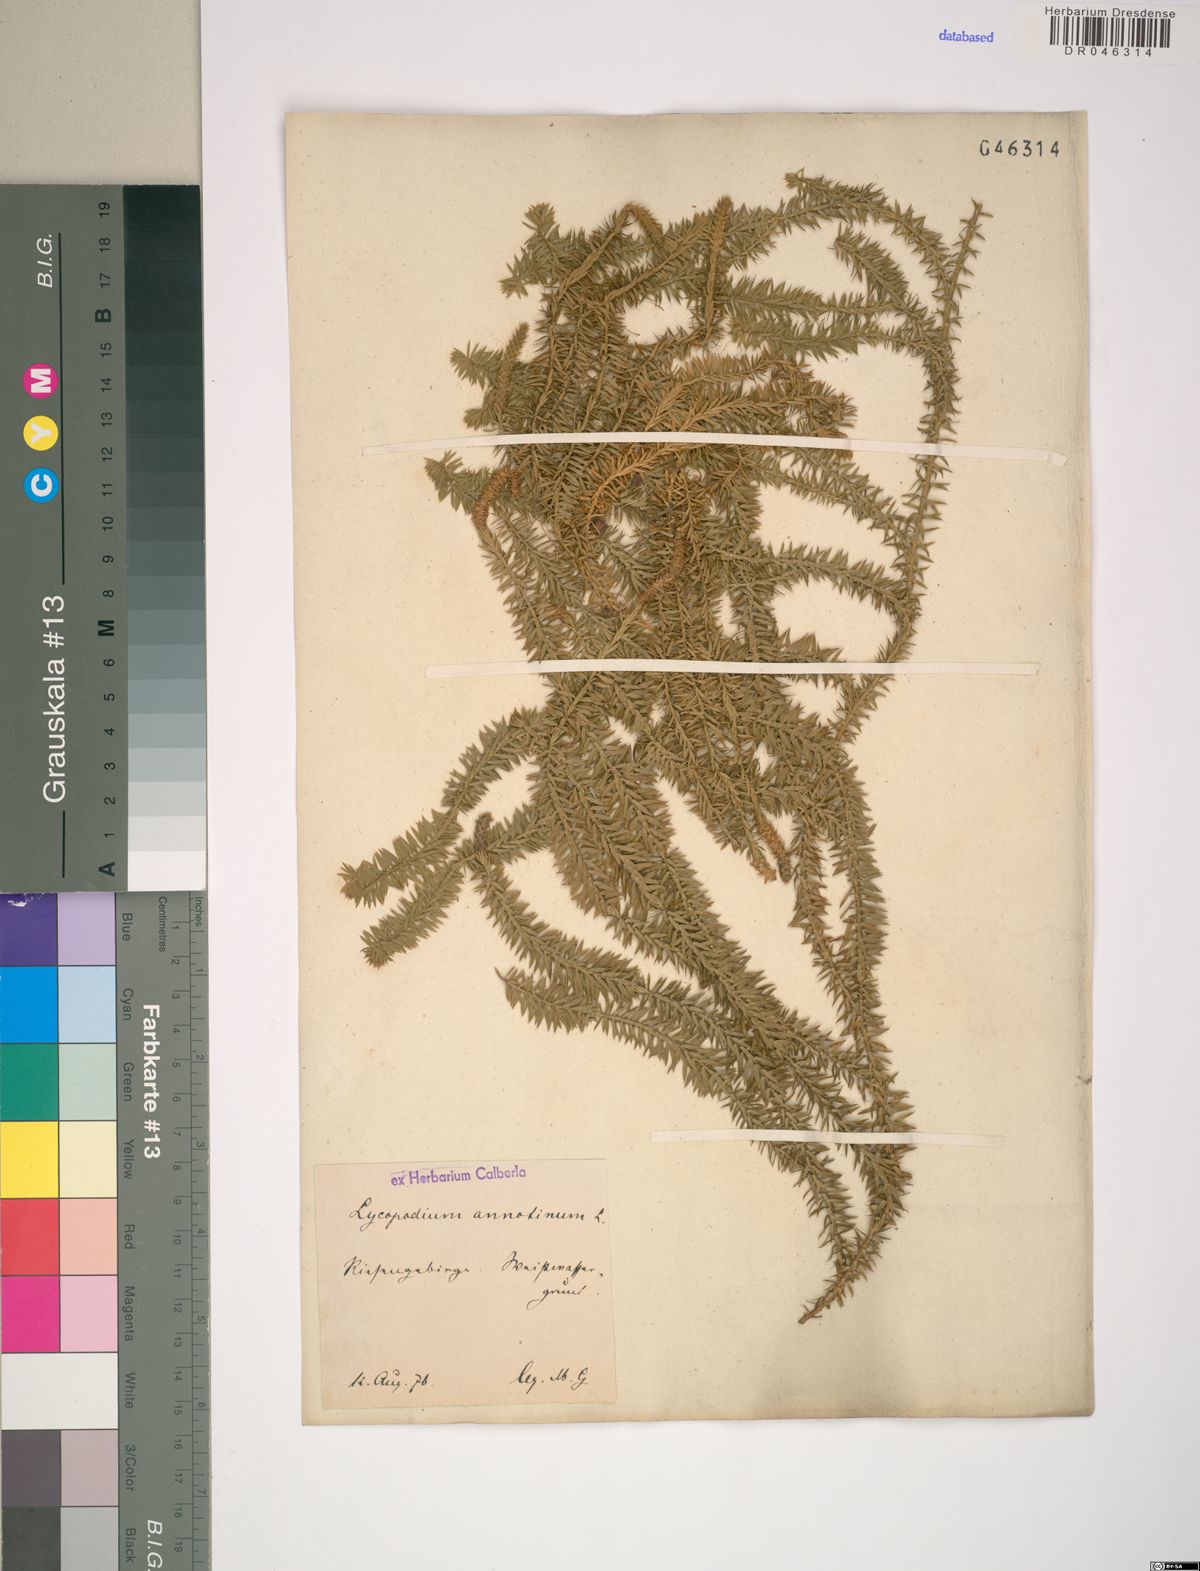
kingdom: Plantae
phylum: Tracheophyta
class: Lycopodiopsida
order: Lycopodiales
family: Lycopodiaceae
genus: Spinulum
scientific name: Spinulum annotinum
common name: Interrupted club-moss
